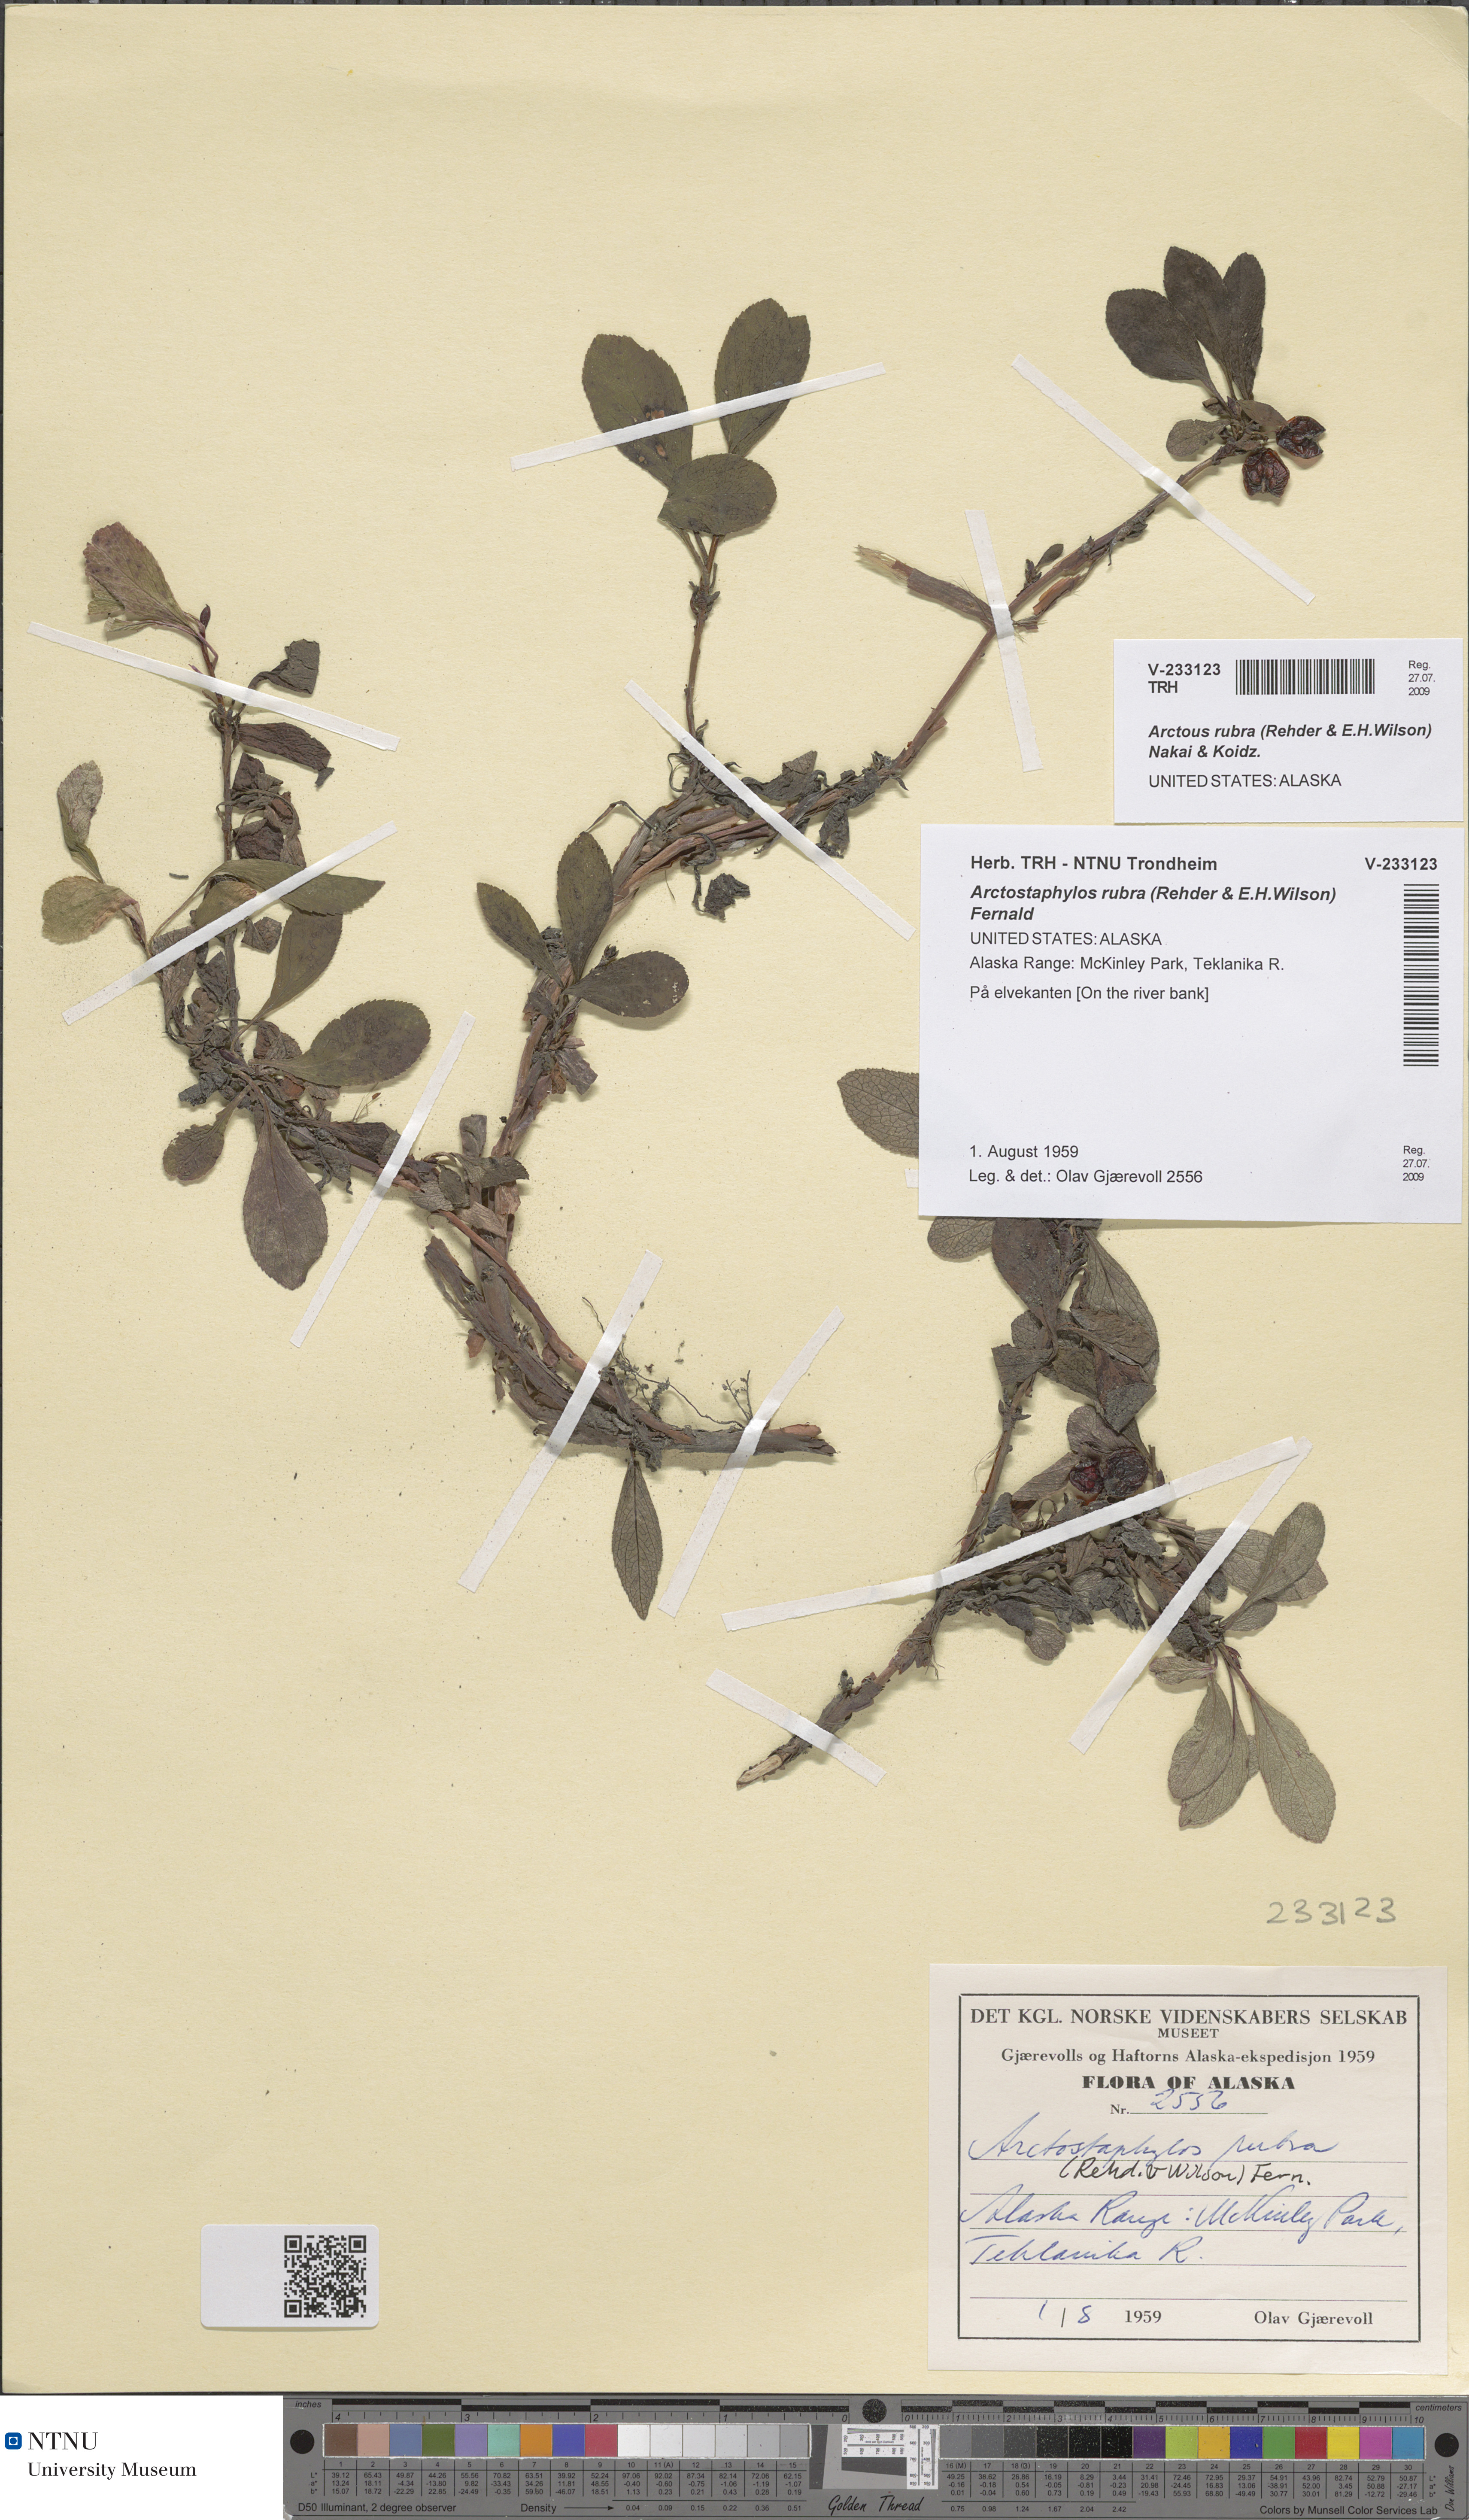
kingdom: Plantae
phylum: Tracheophyta
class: Magnoliopsida
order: Ericales
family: Ericaceae
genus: Arctostaphylos
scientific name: Arctostaphylos rubra
